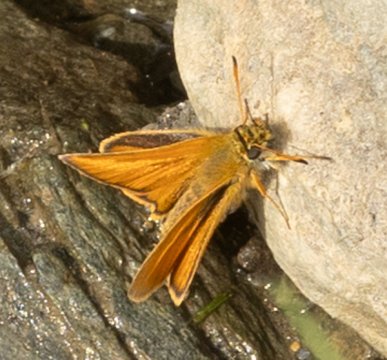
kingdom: Animalia
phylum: Arthropoda
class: Insecta
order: Lepidoptera
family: Hesperiidae
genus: Thymelicus
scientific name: Thymelicus lineola
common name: European Skipper
